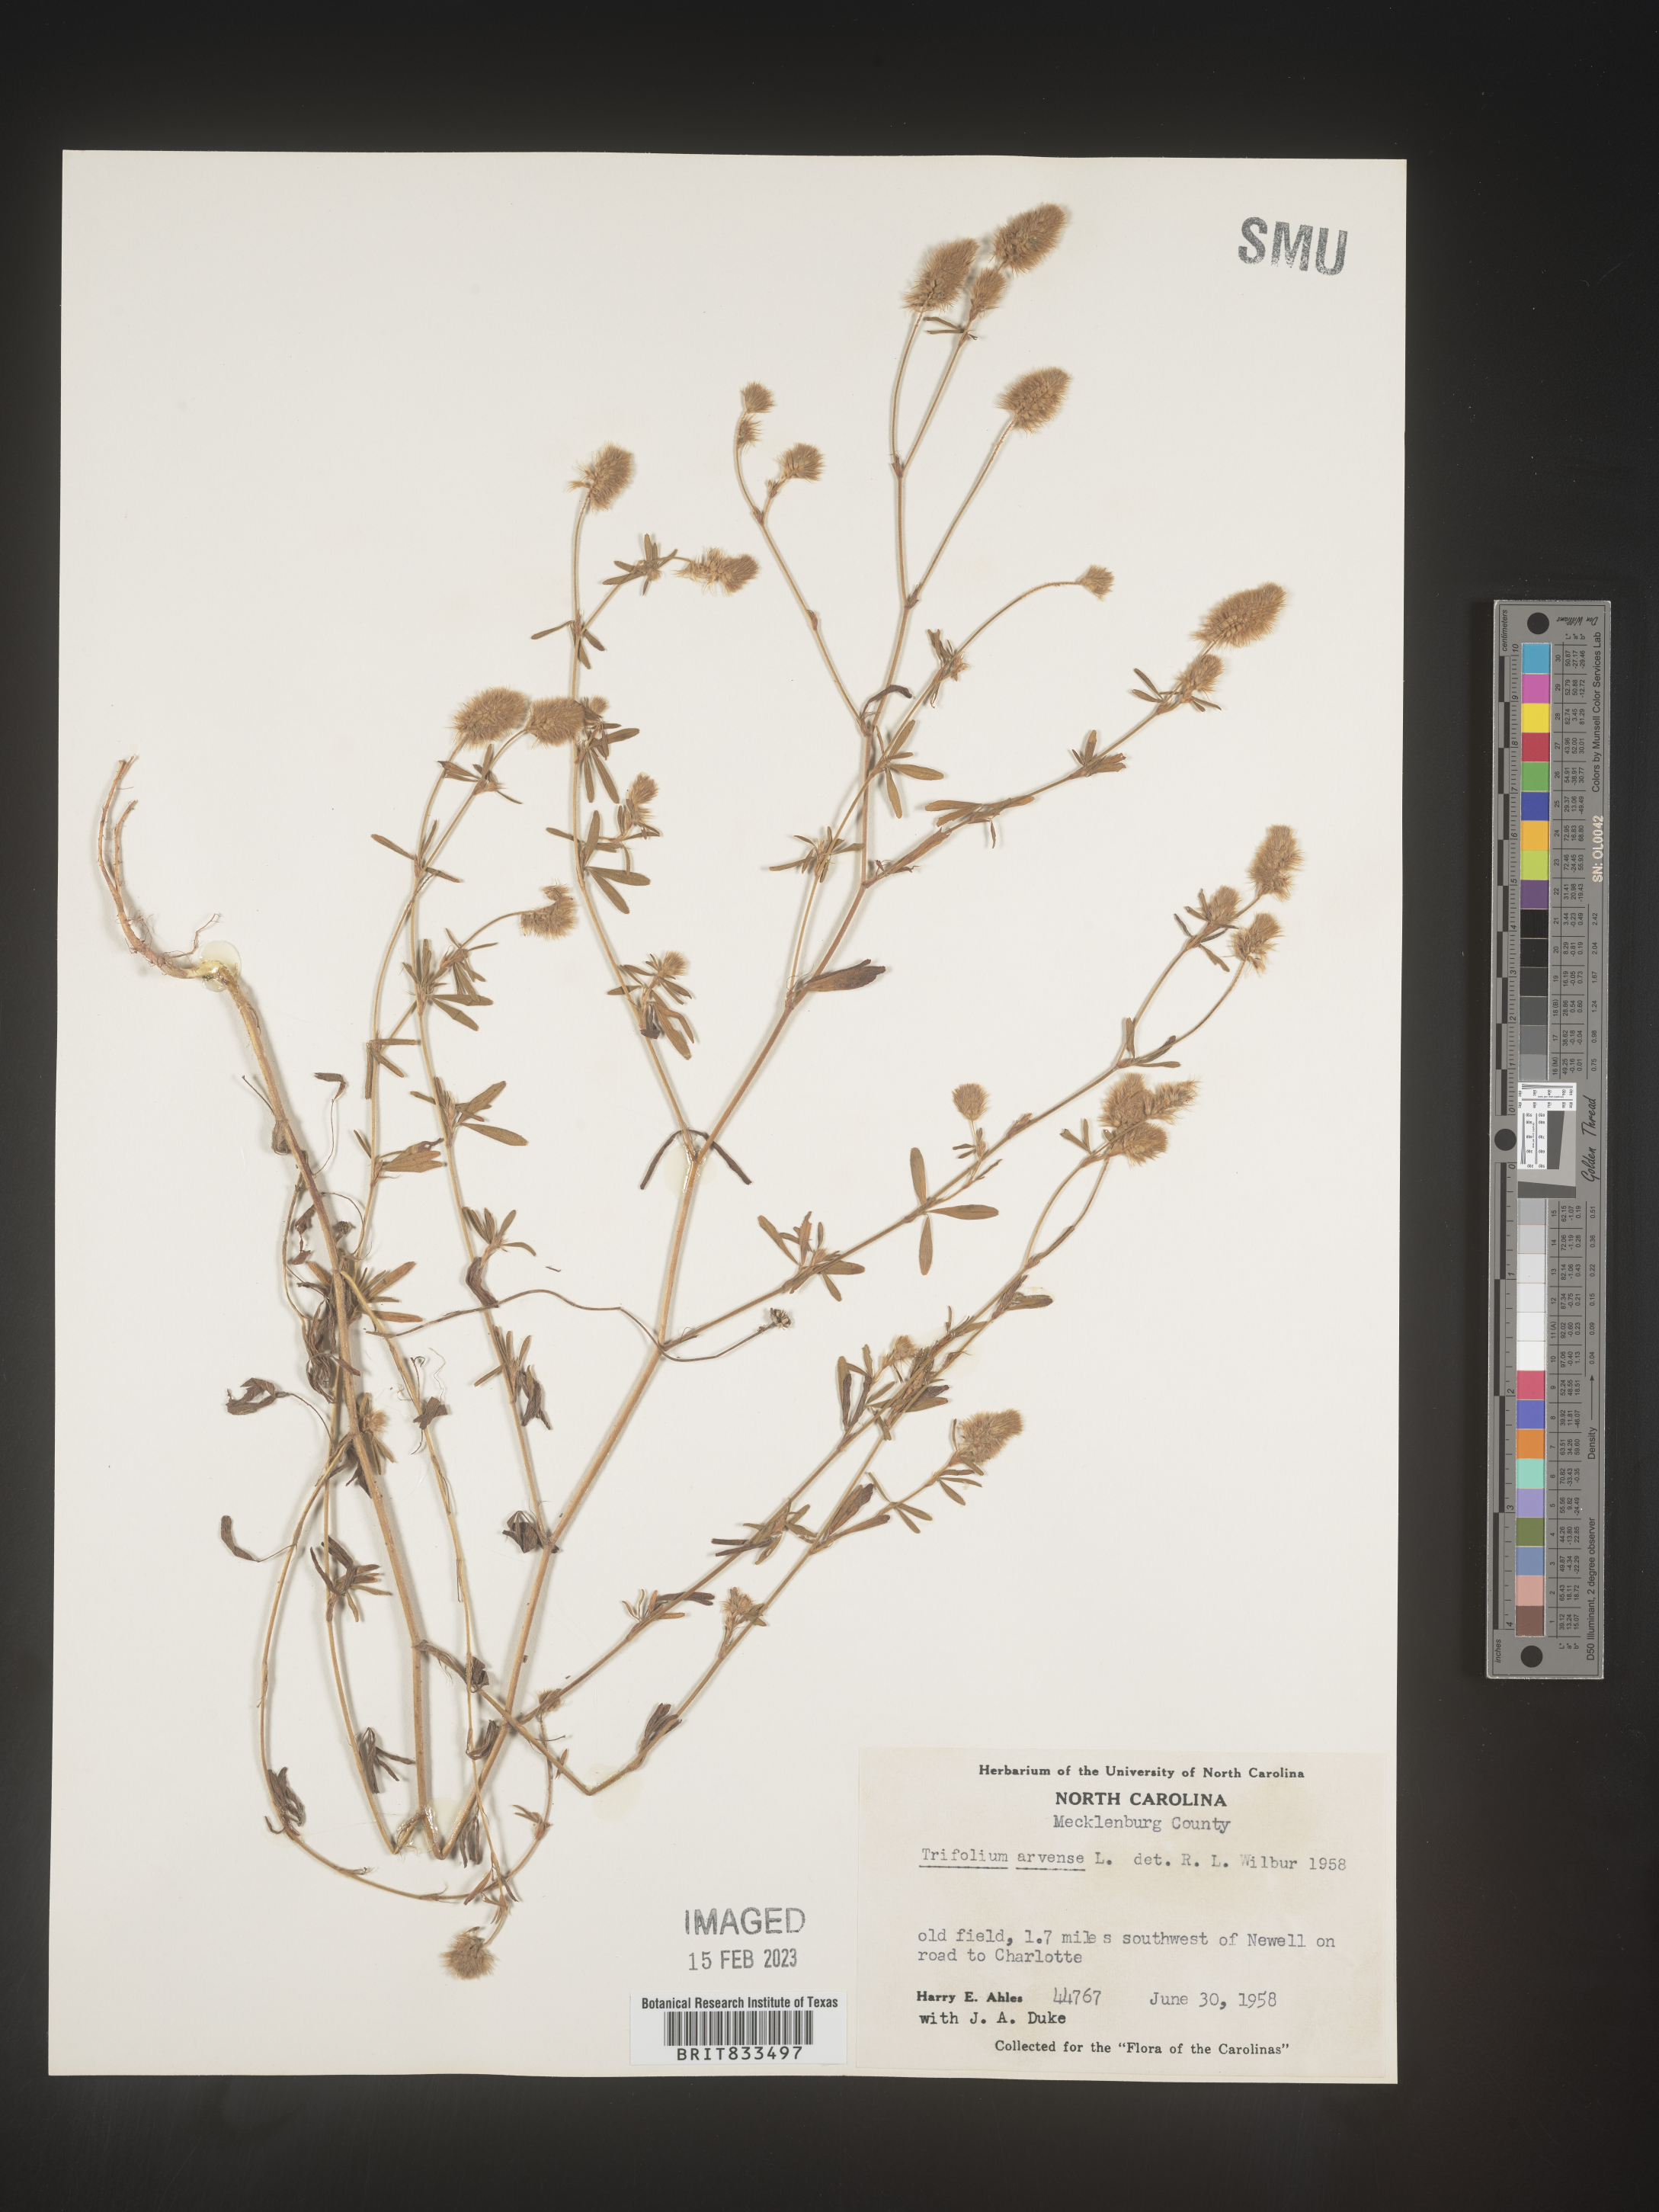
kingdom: Plantae
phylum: Tracheophyta
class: Magnoliopsida
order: Fabales
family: Fabaceae
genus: Trifolium
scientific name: Trifolium arvense
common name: Hare's-foot clover
